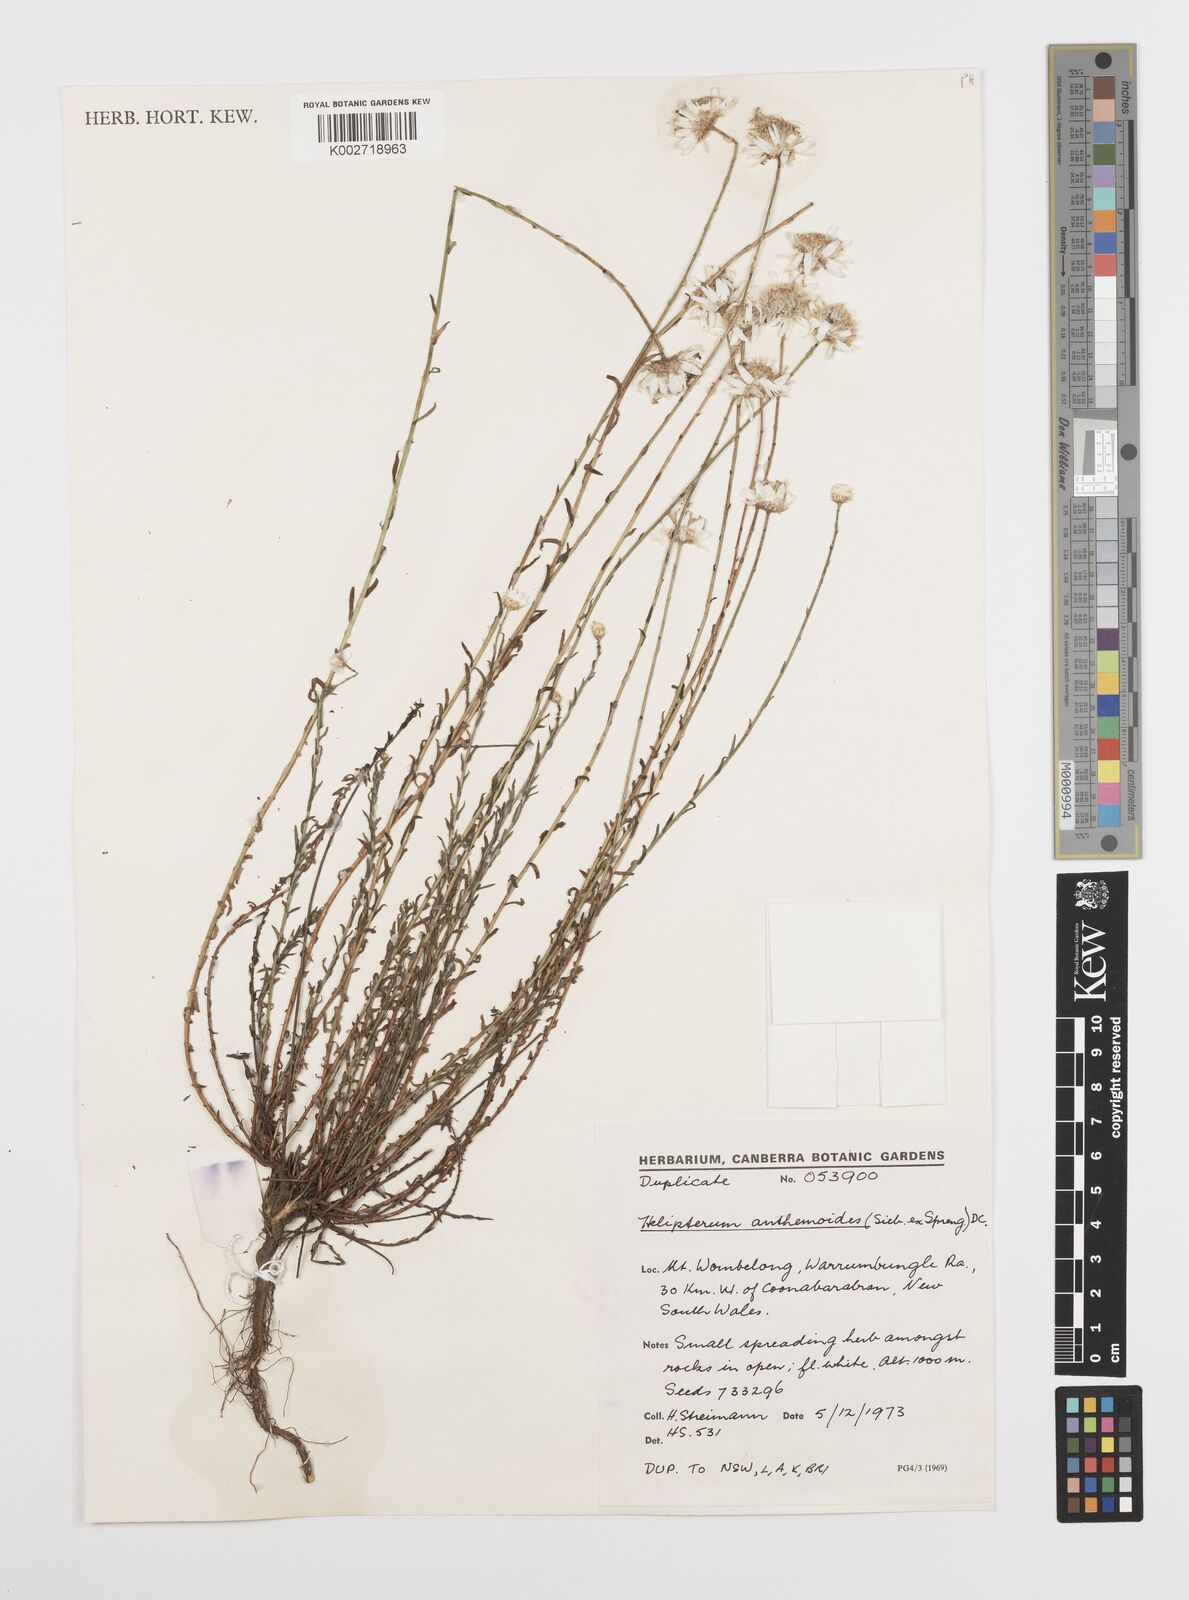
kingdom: Plantae
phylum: Tracheophyta
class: Magnoliopsida
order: Asterales
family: Asteraceae
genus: Rhodanthe
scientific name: Rhodanthe anthemoides
